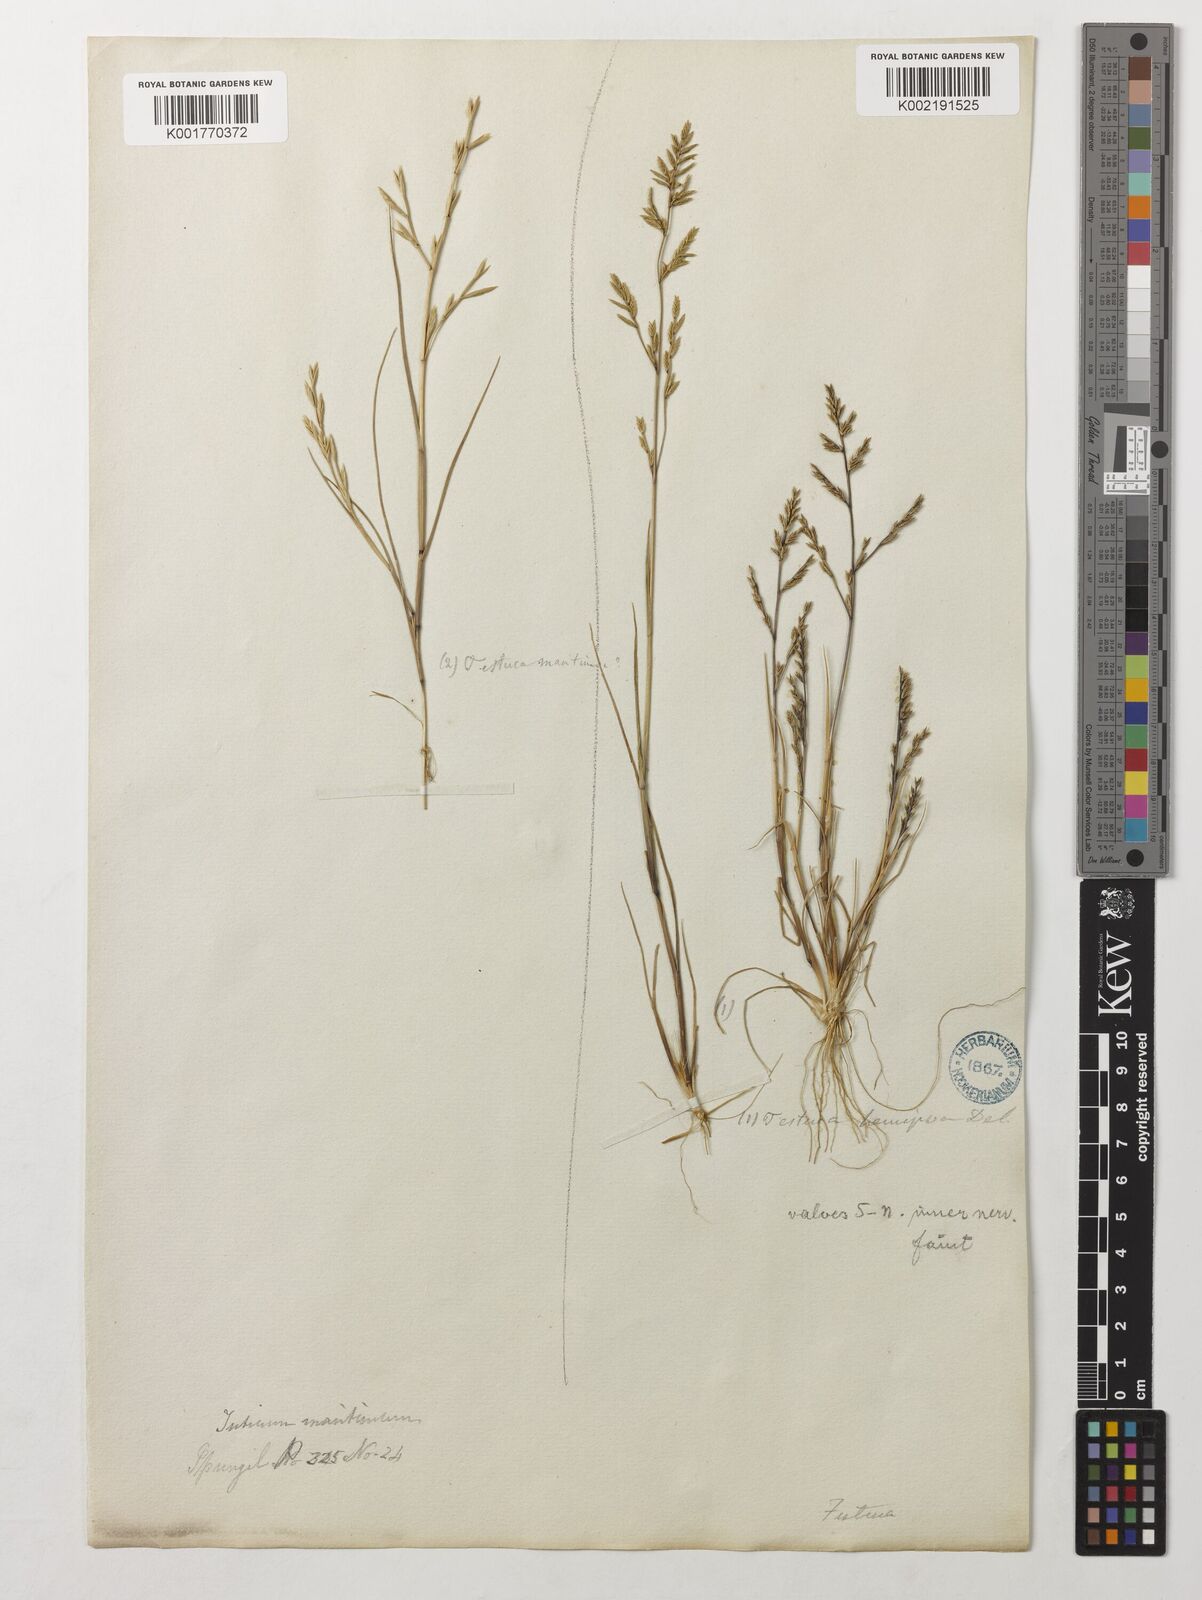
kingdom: Plantae
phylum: Tracheophyta
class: Liliopsida
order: Poales
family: Poaceae
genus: Catapodium
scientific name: Catapodium hemipoa
